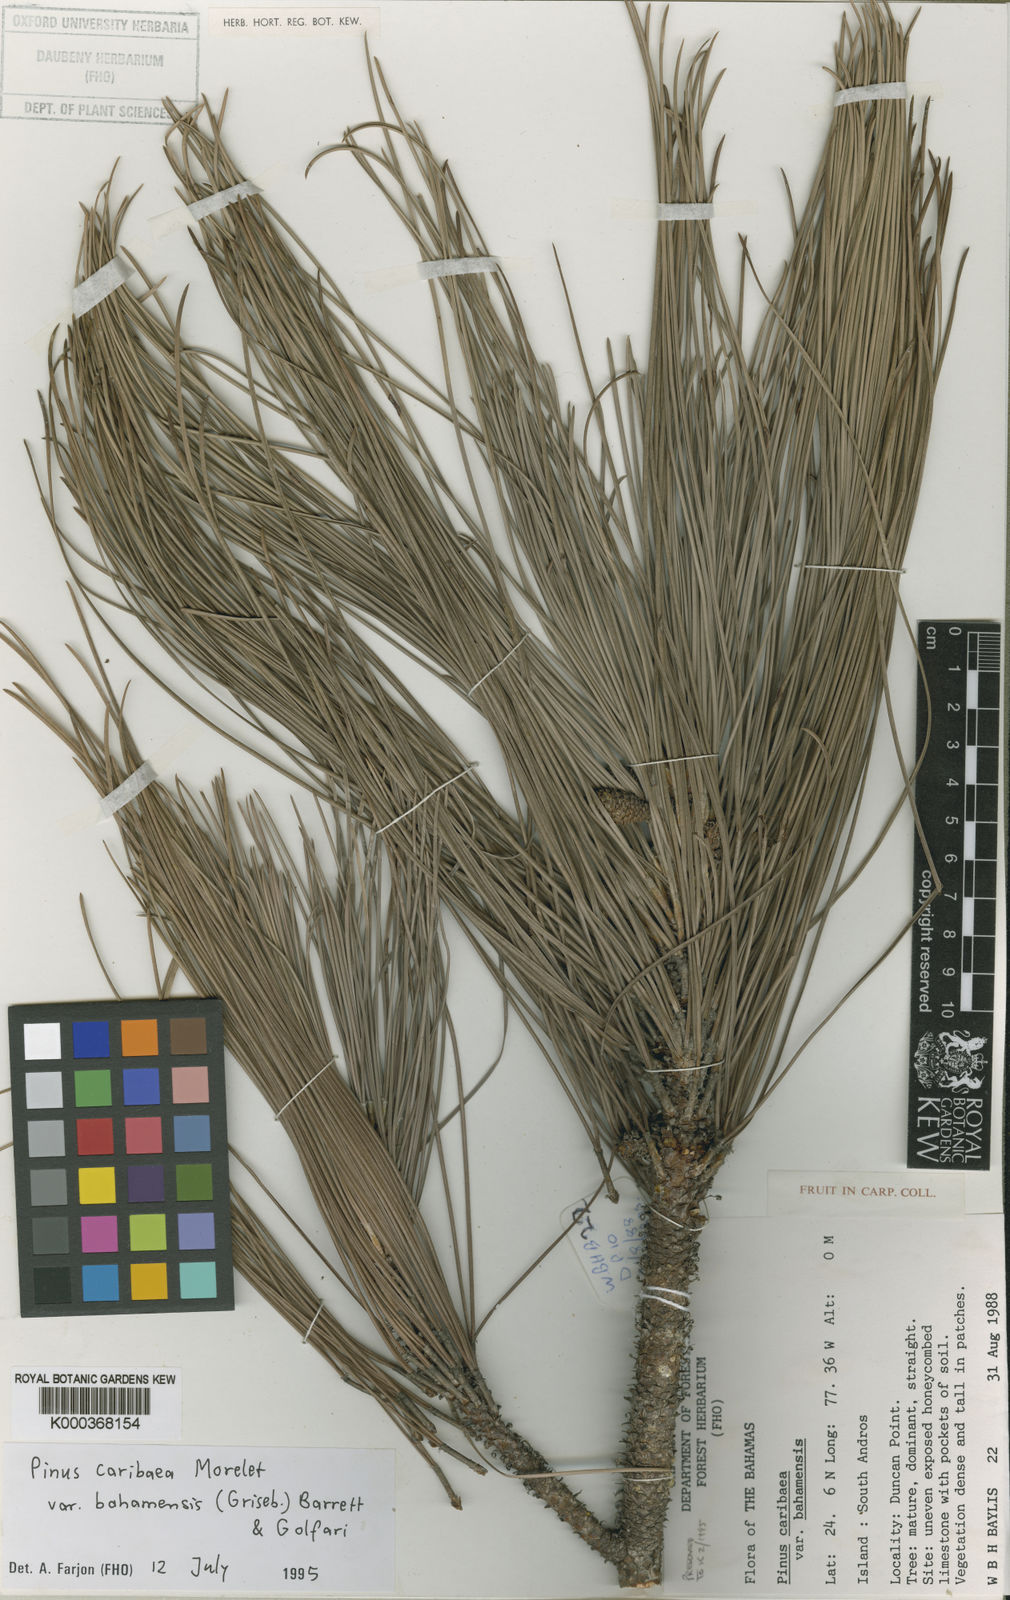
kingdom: Plantae
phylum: Tracheophyta
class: Pinopsida
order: Pinales
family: Pinaceae
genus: Pinus
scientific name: Pinus caribaea
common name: Caribbean pine
